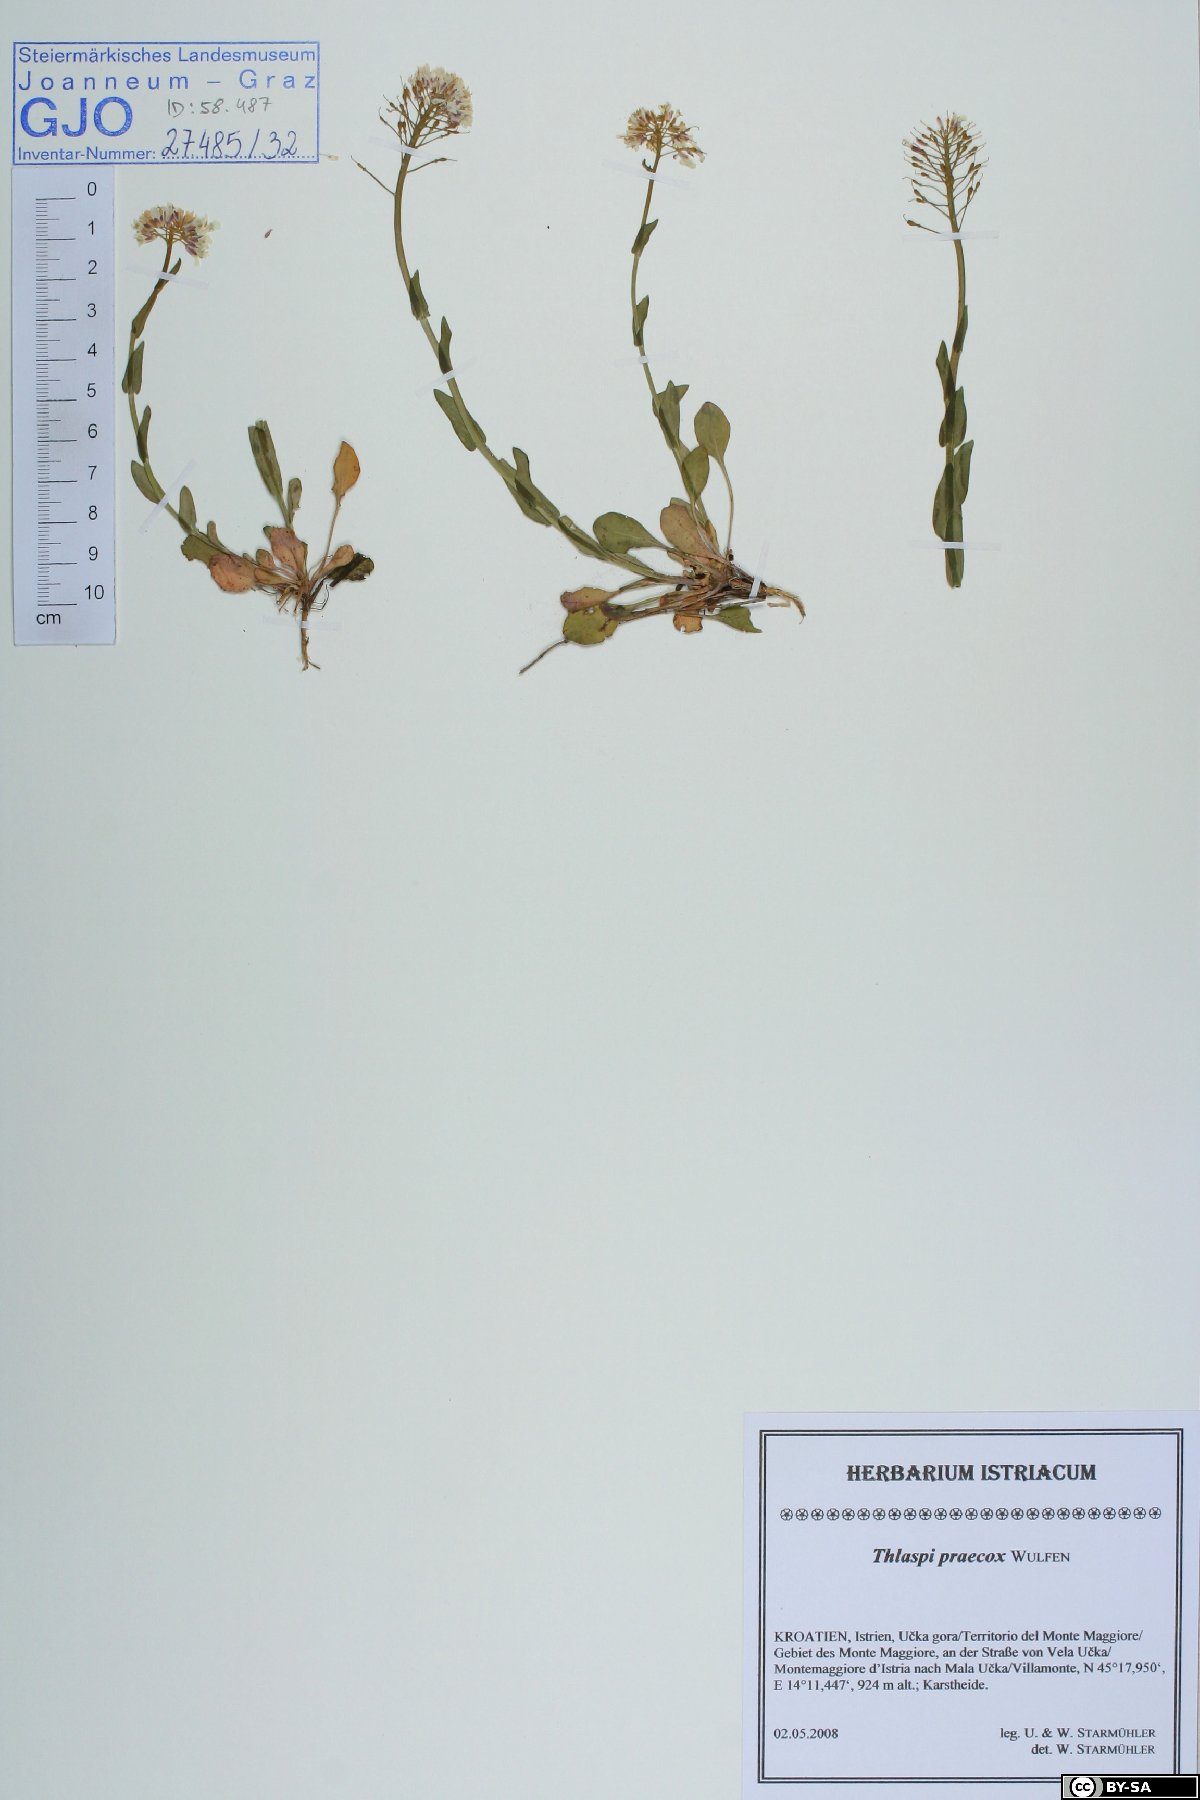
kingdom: Plantae
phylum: Tracheophyta
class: Magnoliopsida
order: Brassicales
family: Brassicaceae
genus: Noccaea
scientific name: Noccaea praecox
